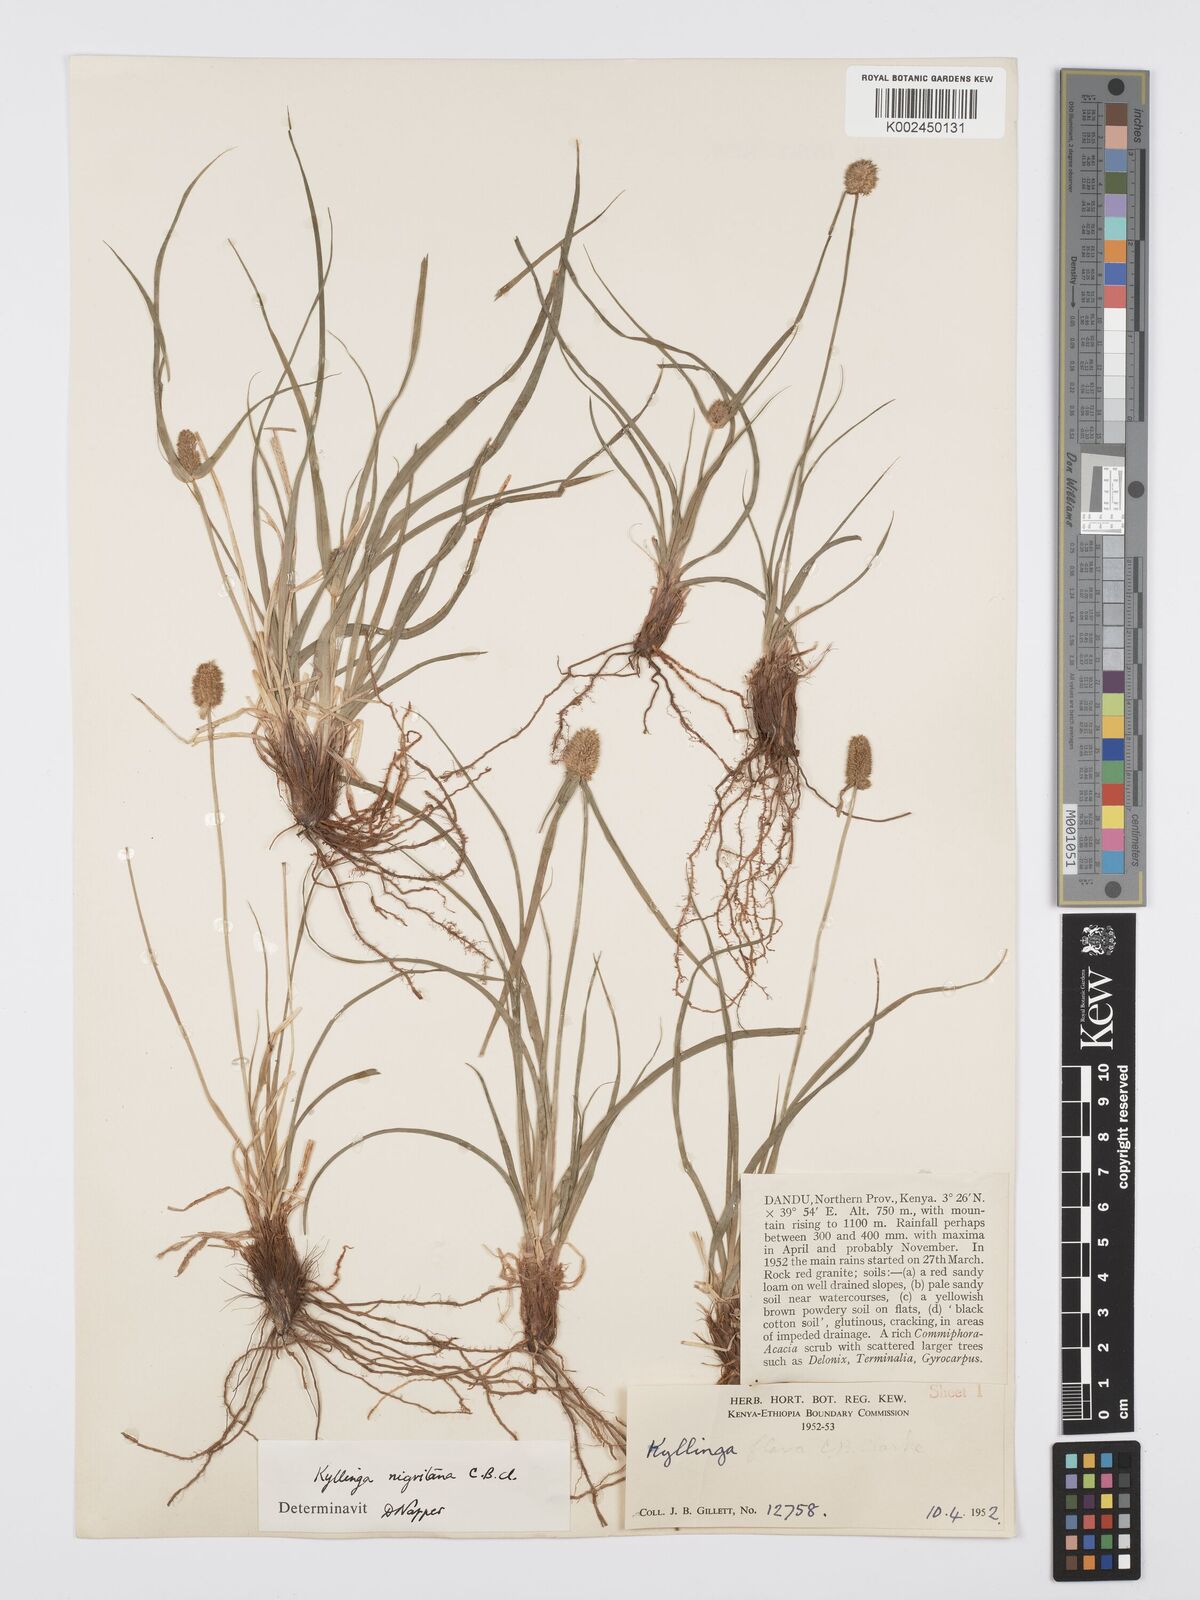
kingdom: Plantae
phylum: Tracheophyta
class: Liliopsida
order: Poales
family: Cyperaceae
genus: Cyperus
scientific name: Cyperus alatus
